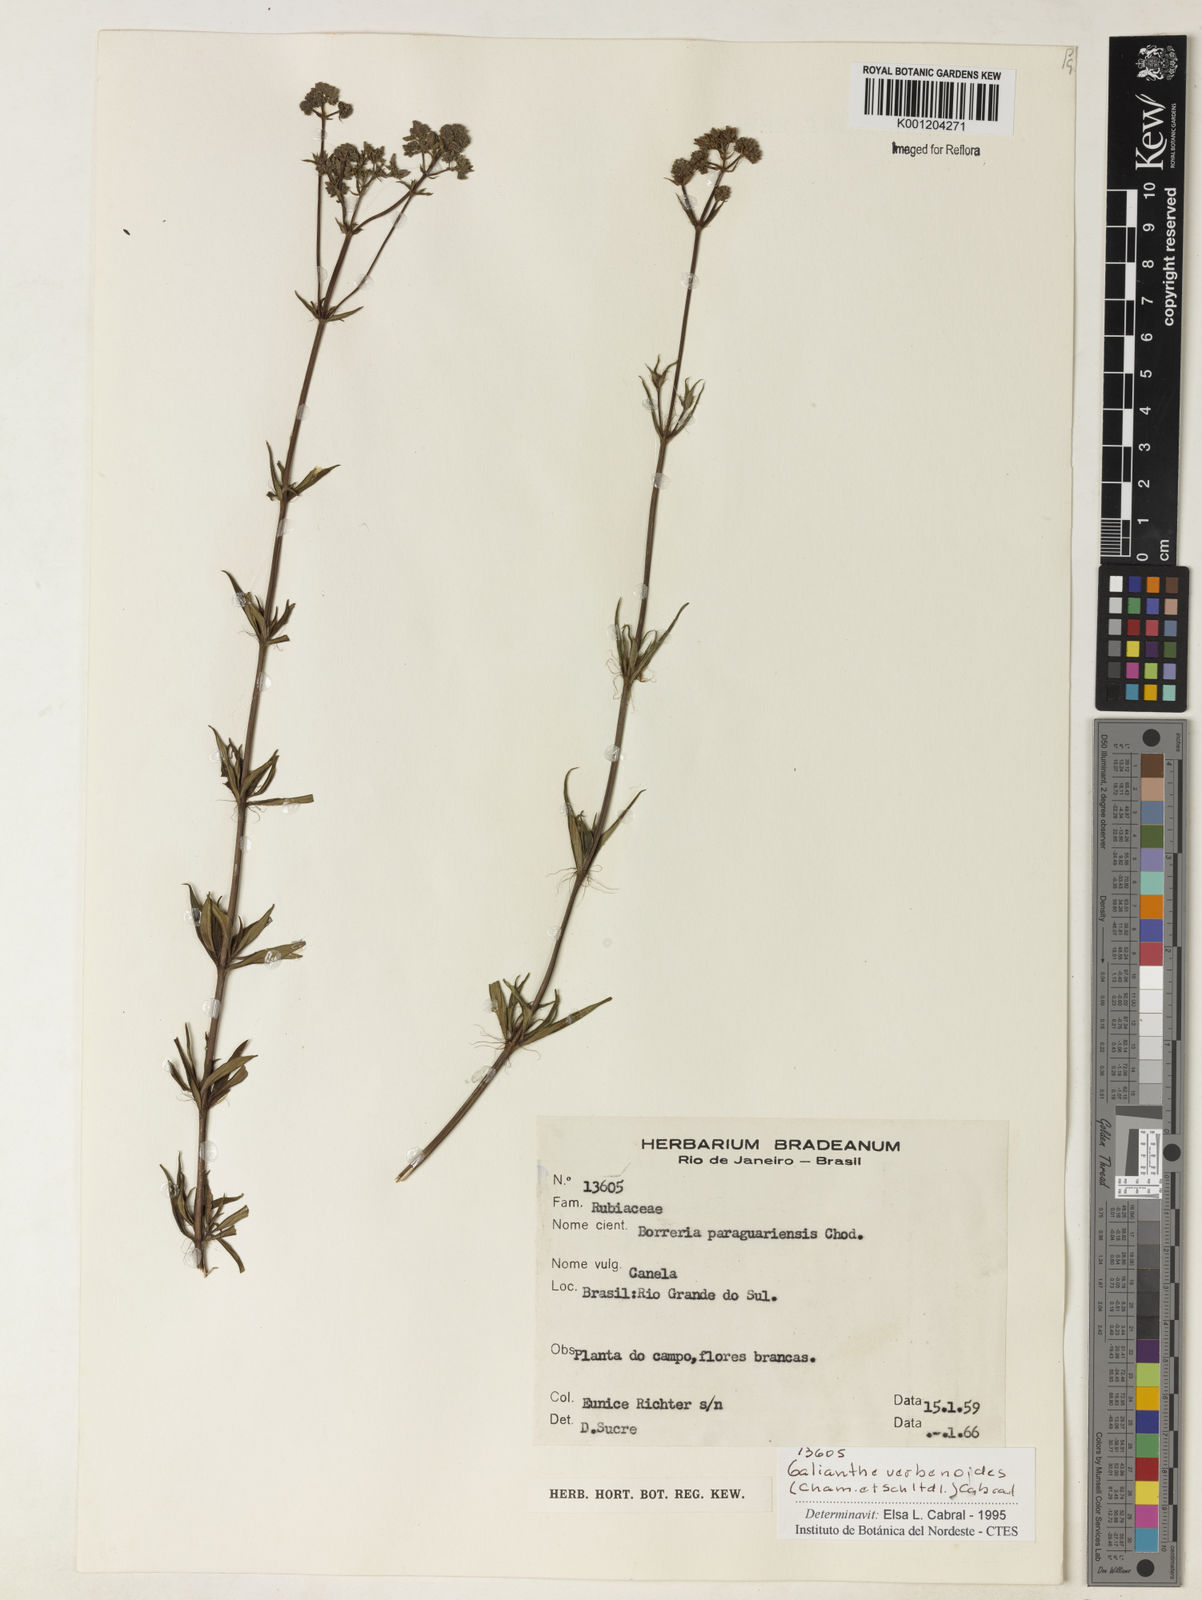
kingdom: Plantae
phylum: Tracheophyta
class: Magnoliopsida
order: Gentianales
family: Rubiaceae
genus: Galianthe
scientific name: Galianthe verbenoides
